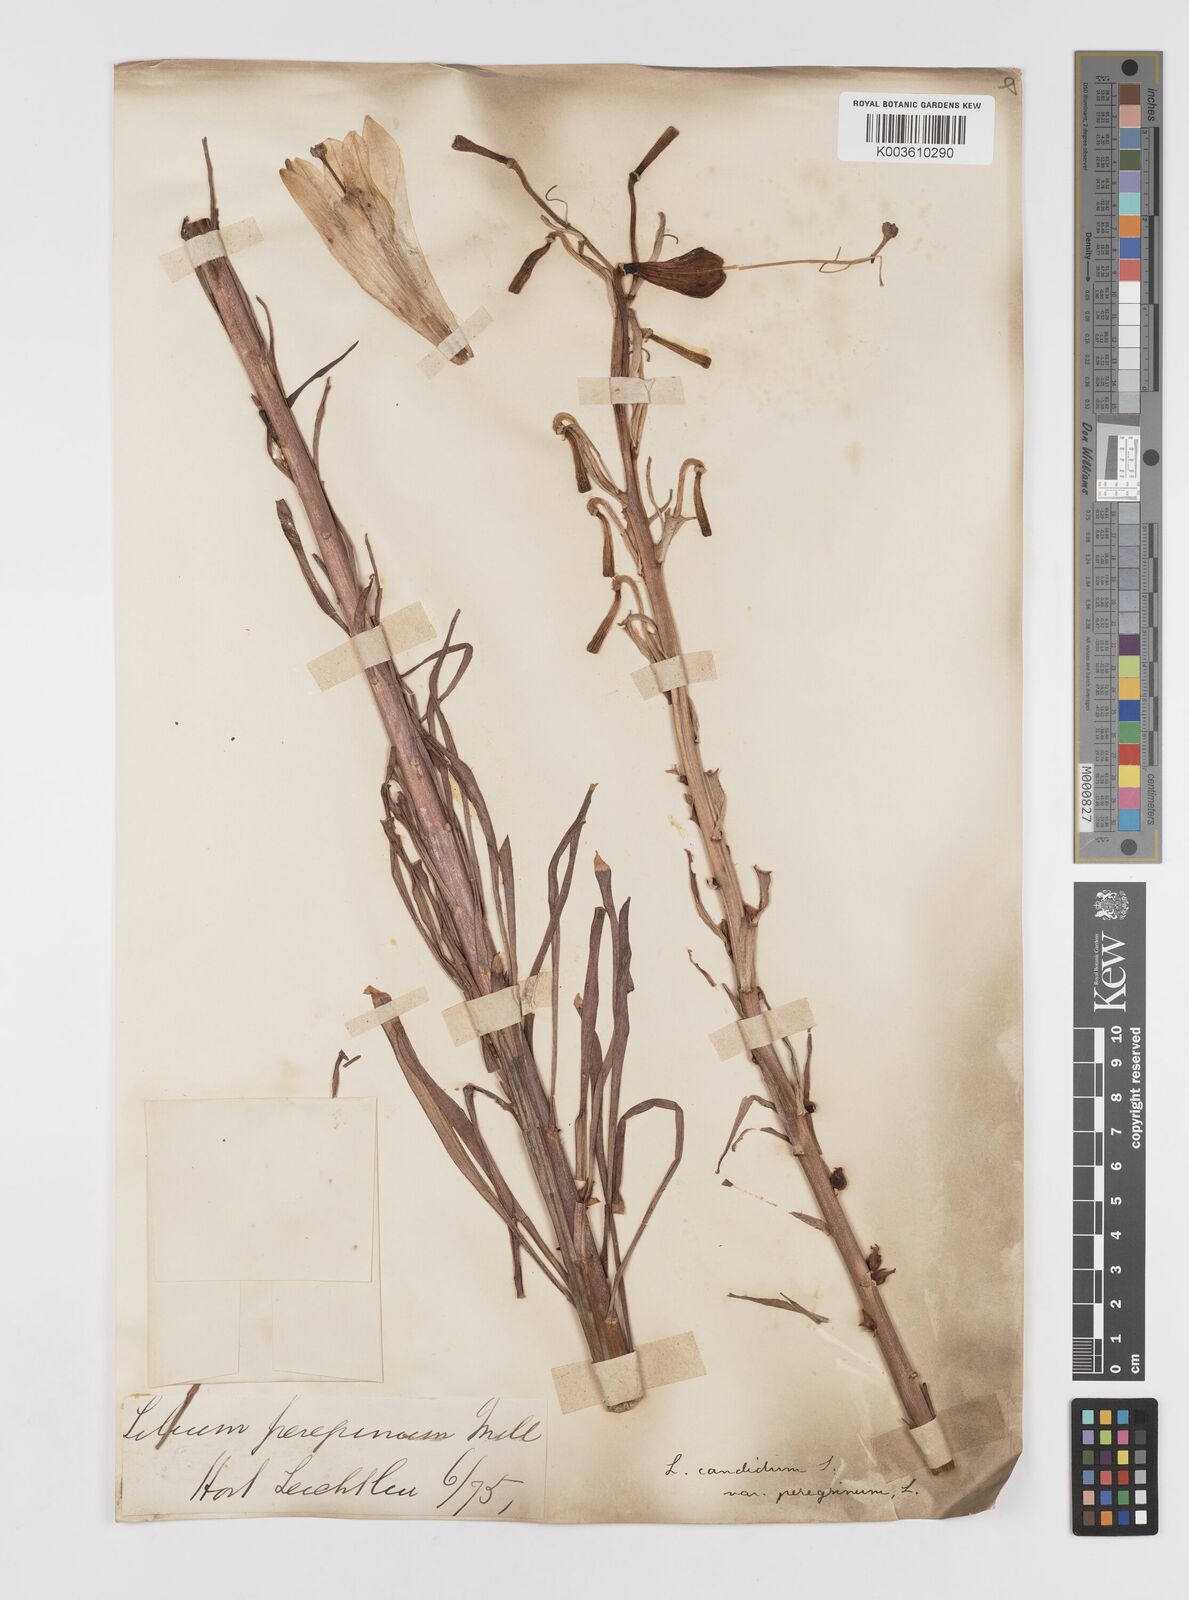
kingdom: Plantae
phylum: Tracheophyta
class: Liliopsida
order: Liliales
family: Liliaceae
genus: Lilium
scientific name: Lilium candidum
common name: Madonna lily
